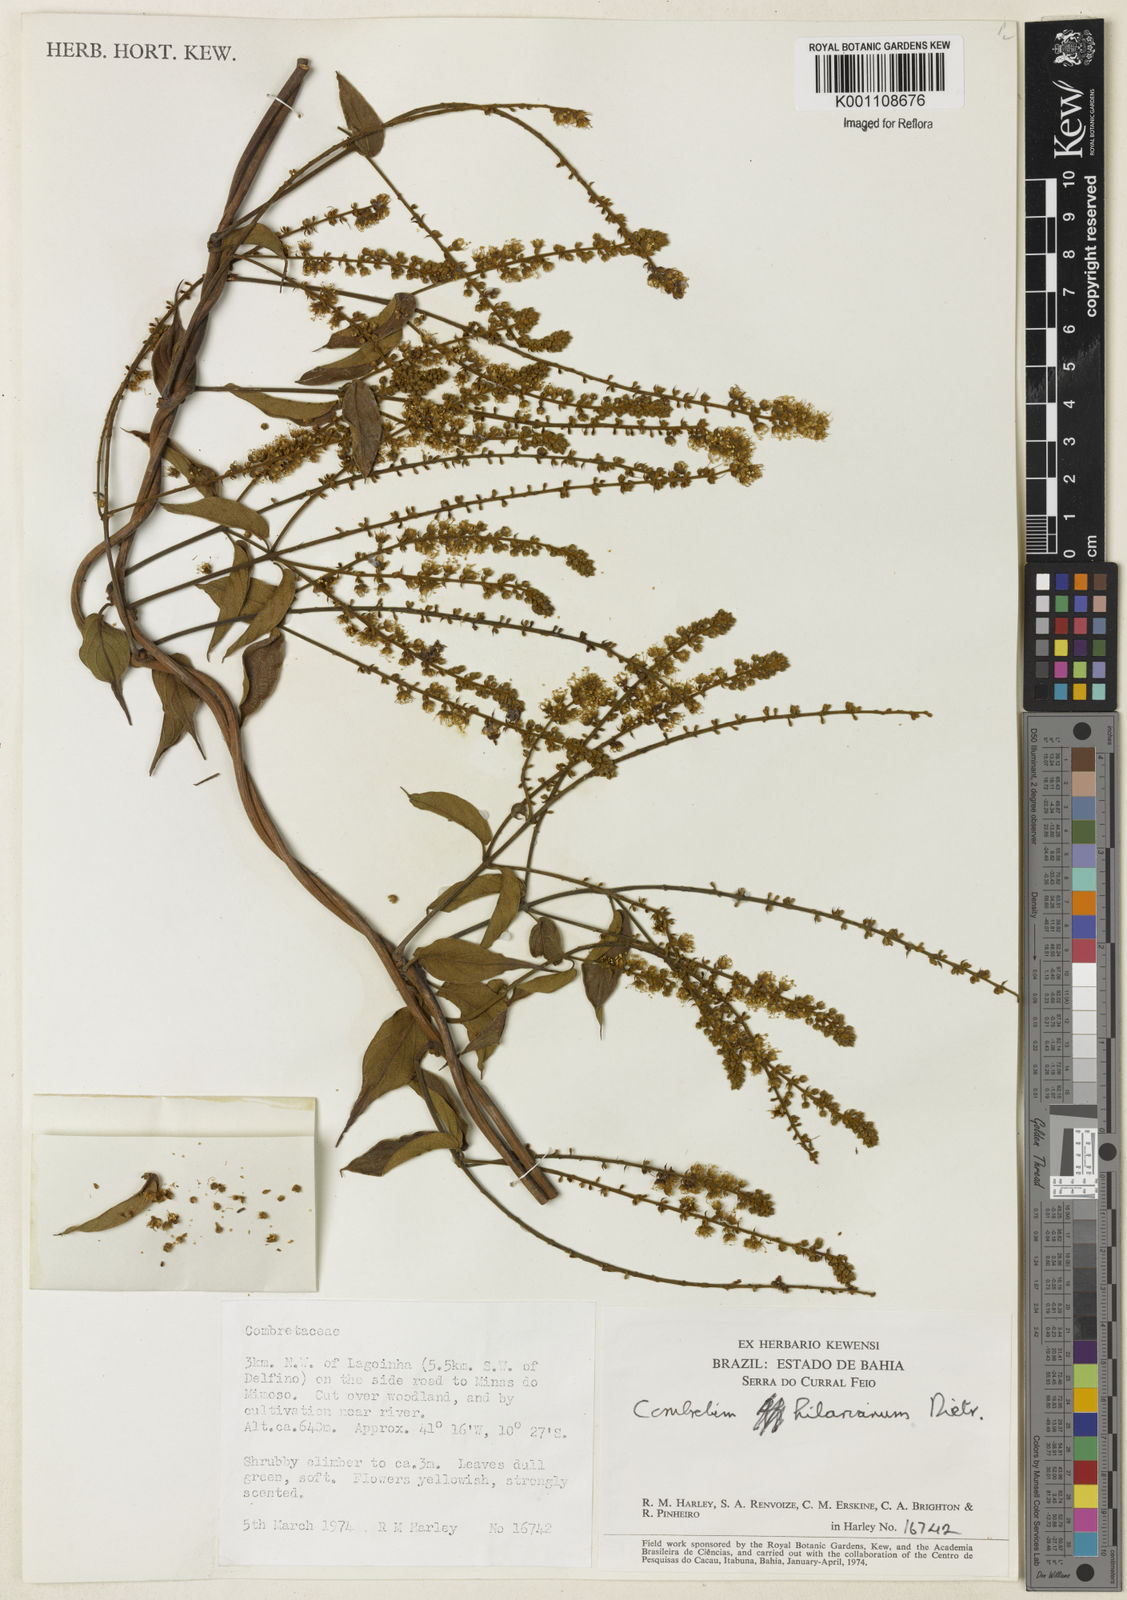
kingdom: Plantae
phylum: Tracheophyta
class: Magnoliopsida
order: Myrtales
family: Combretaceae
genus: Combretum
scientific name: Combretum hilarianum
